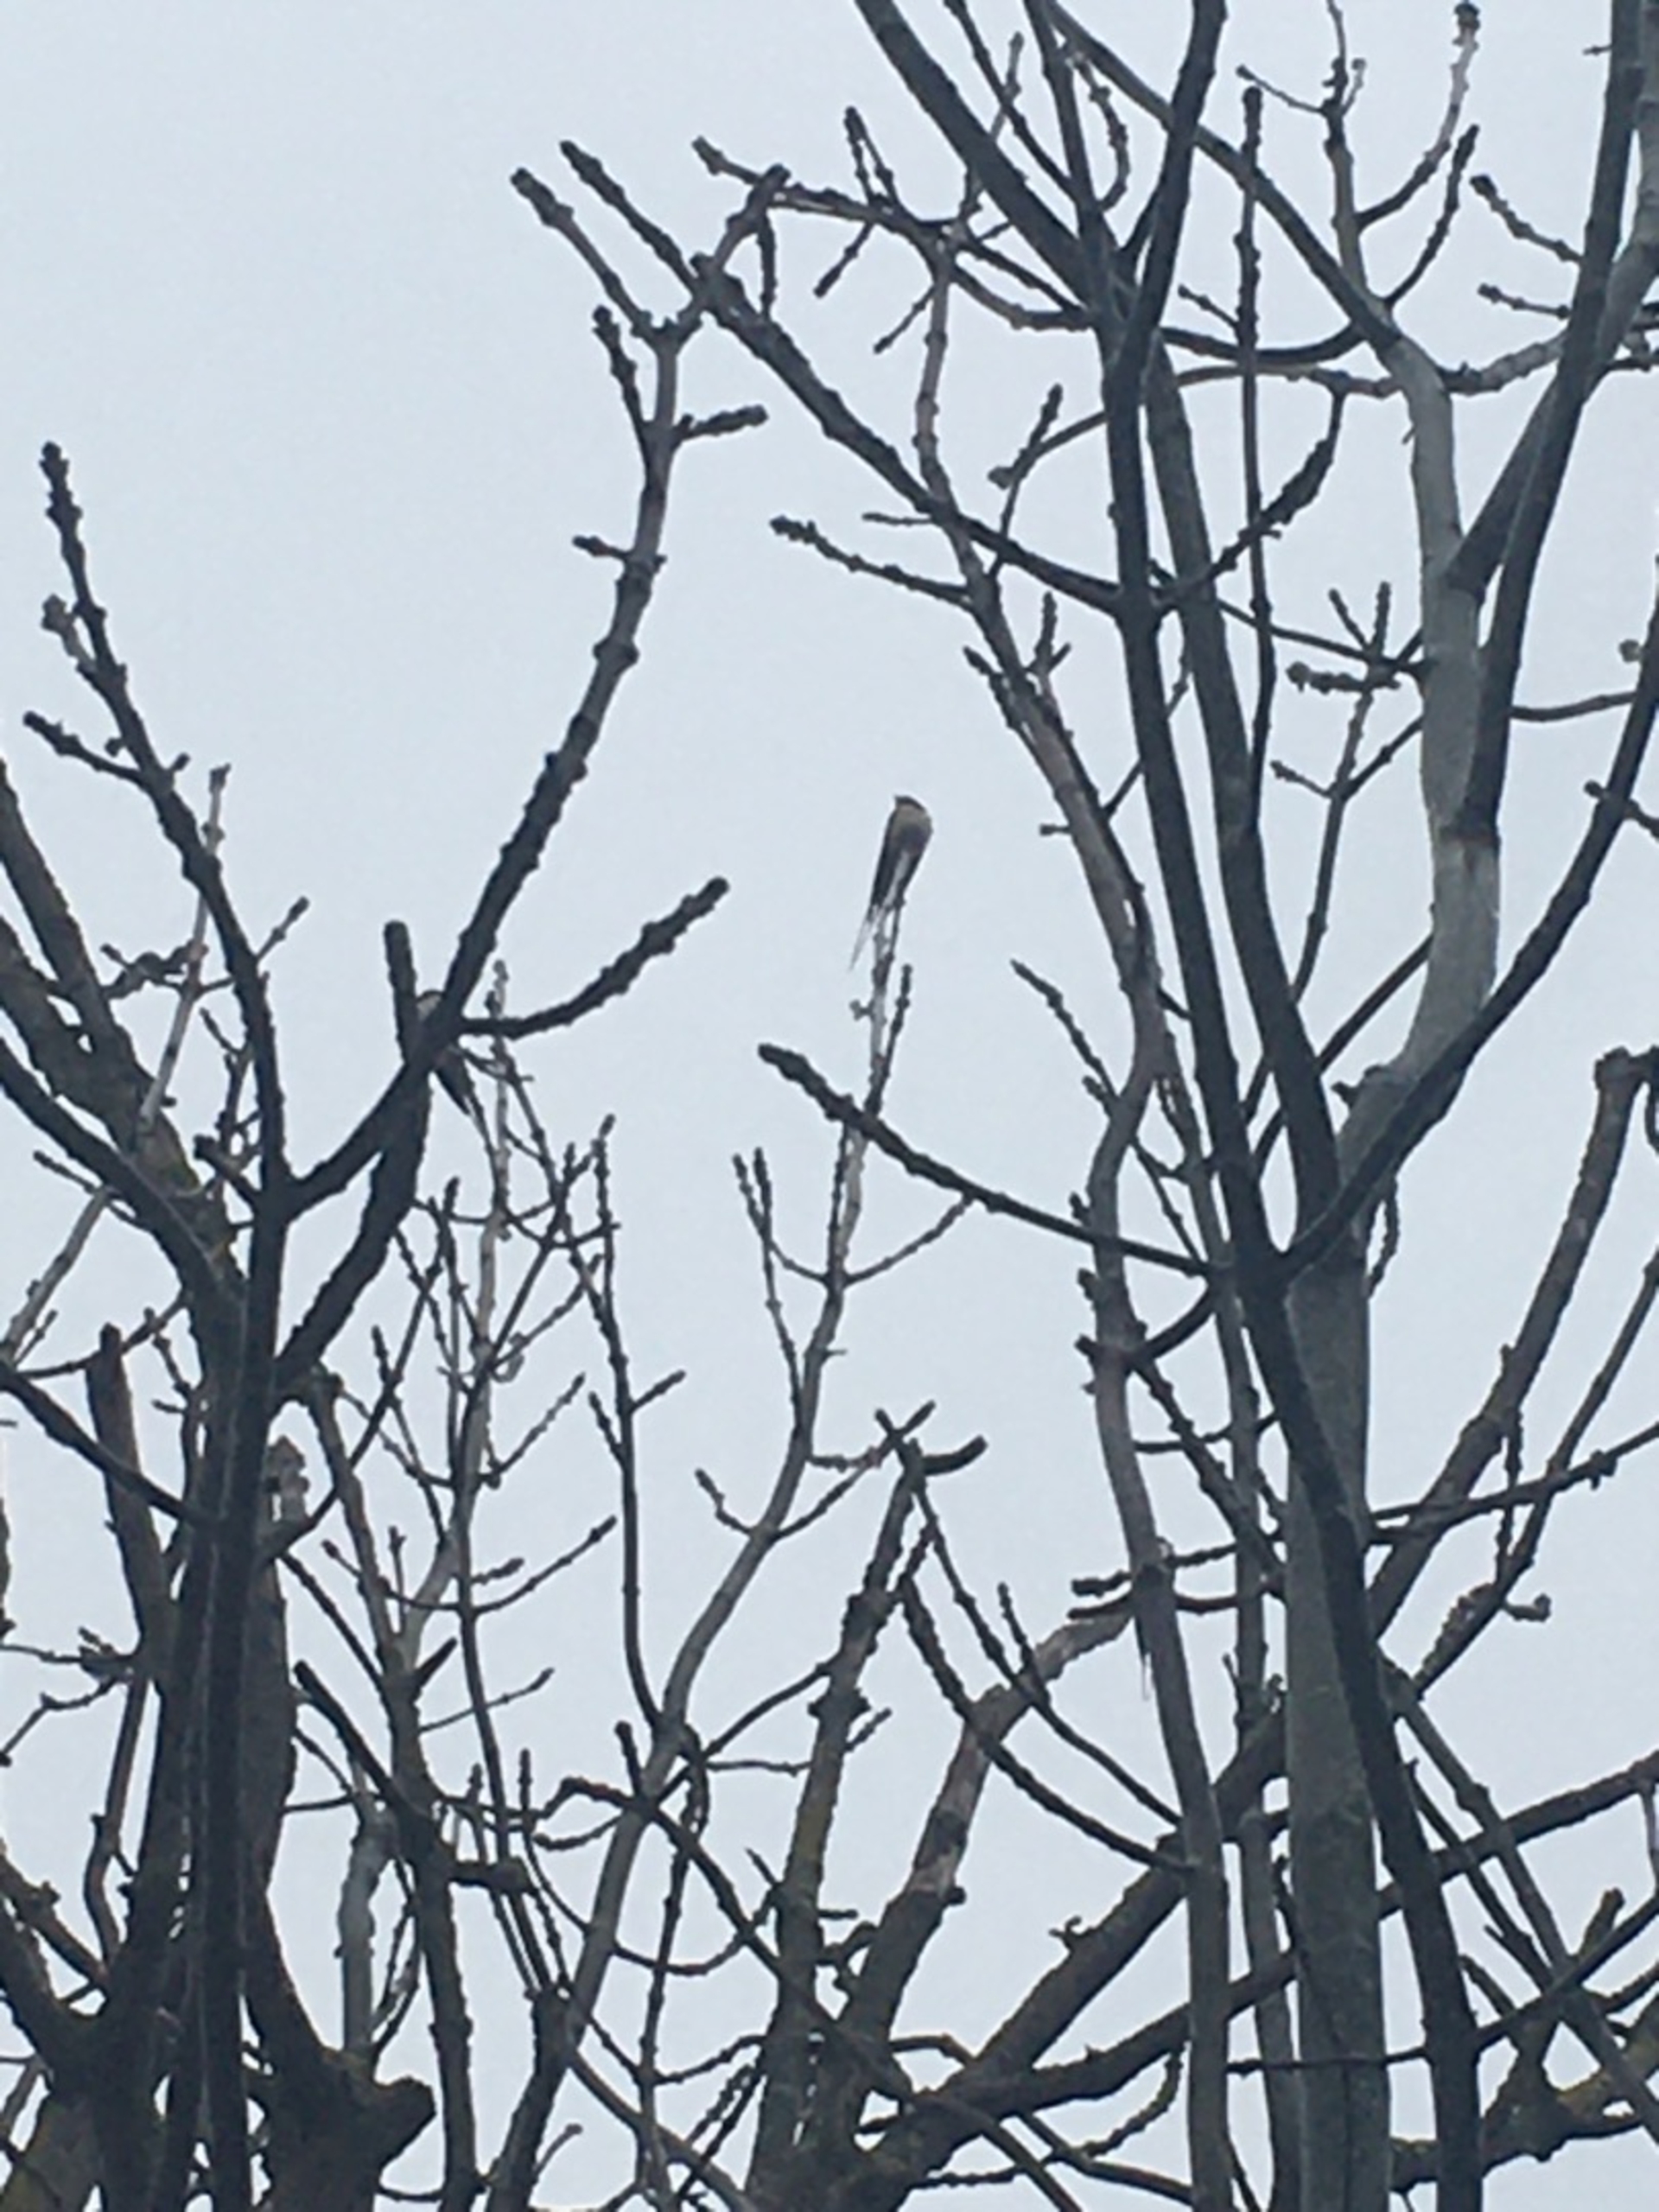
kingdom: Animalia
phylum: Chordata
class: Aves
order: Passeriformes
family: Hirundinidae
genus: Hirundo
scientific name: Hirundo rustica
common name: Landsvale
